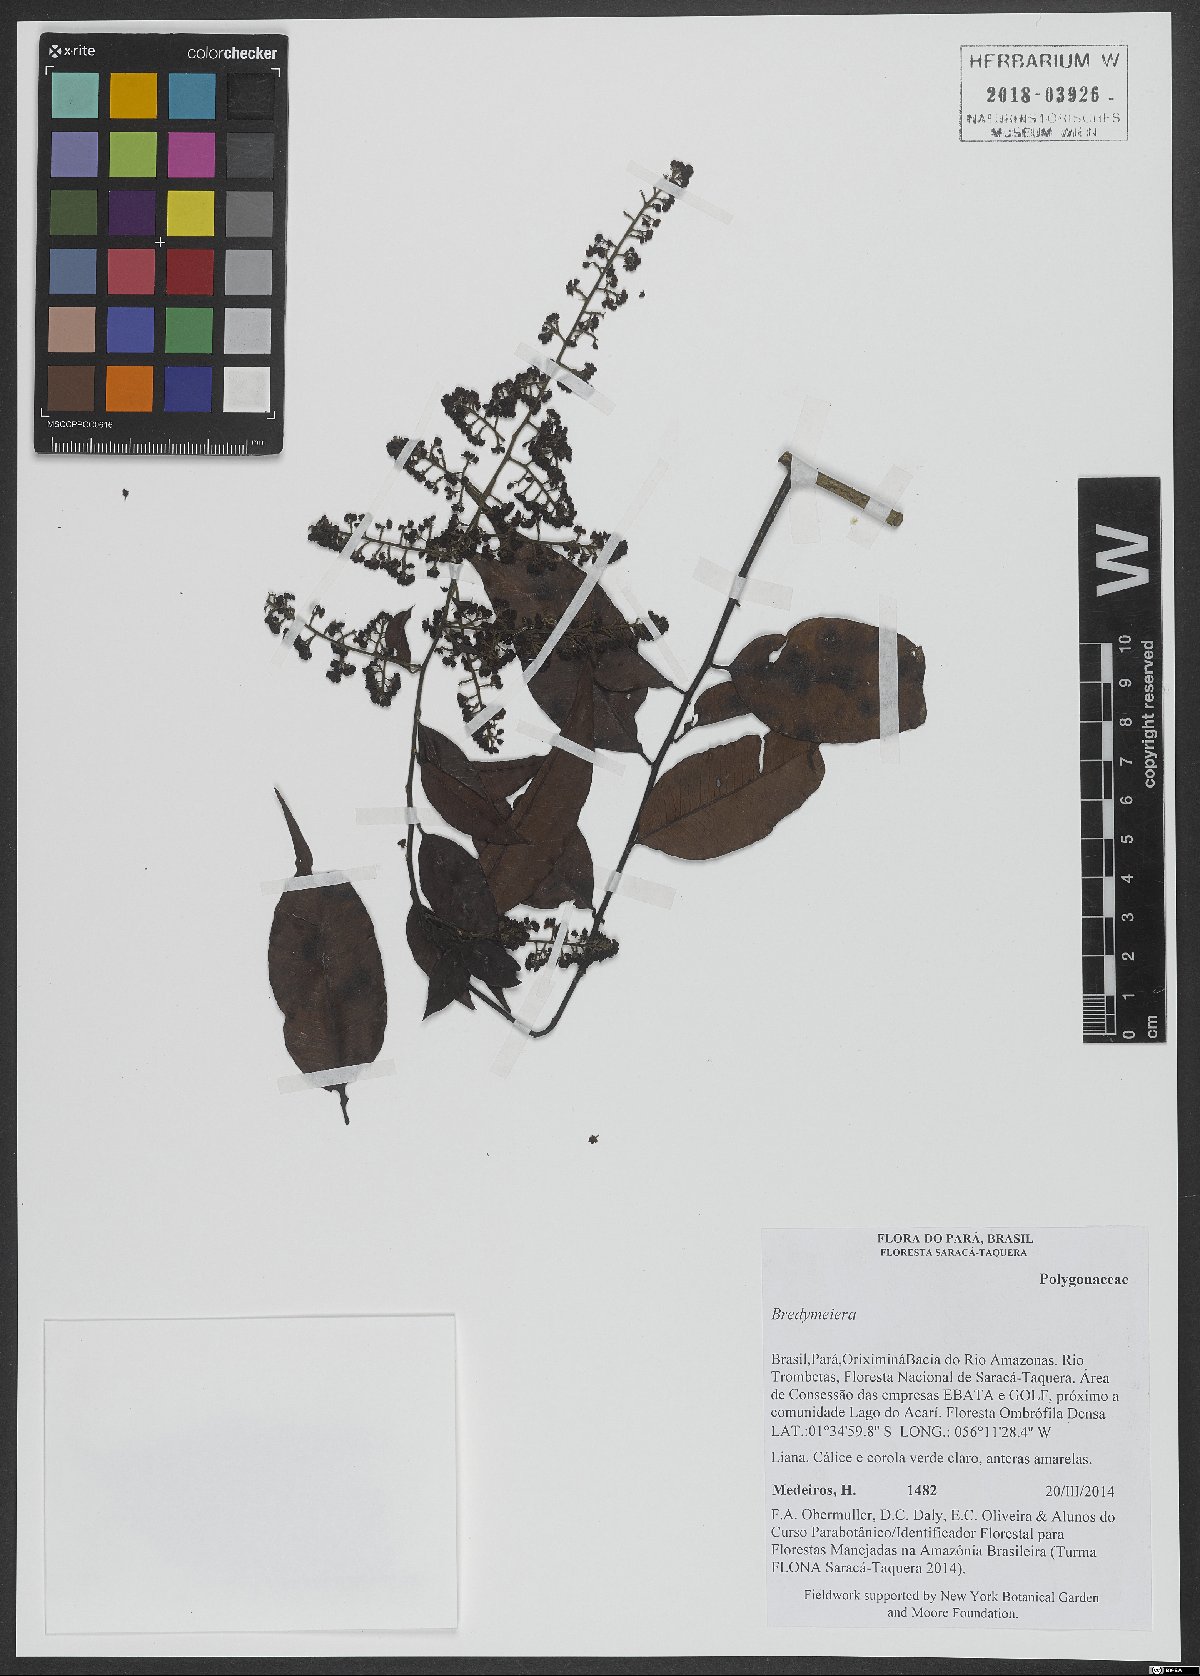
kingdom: Plantae
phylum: Tracheophyta
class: Magnoliopsida
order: Fabales
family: Polygalaceae
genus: Bredemeyera
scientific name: Bredemeyera
